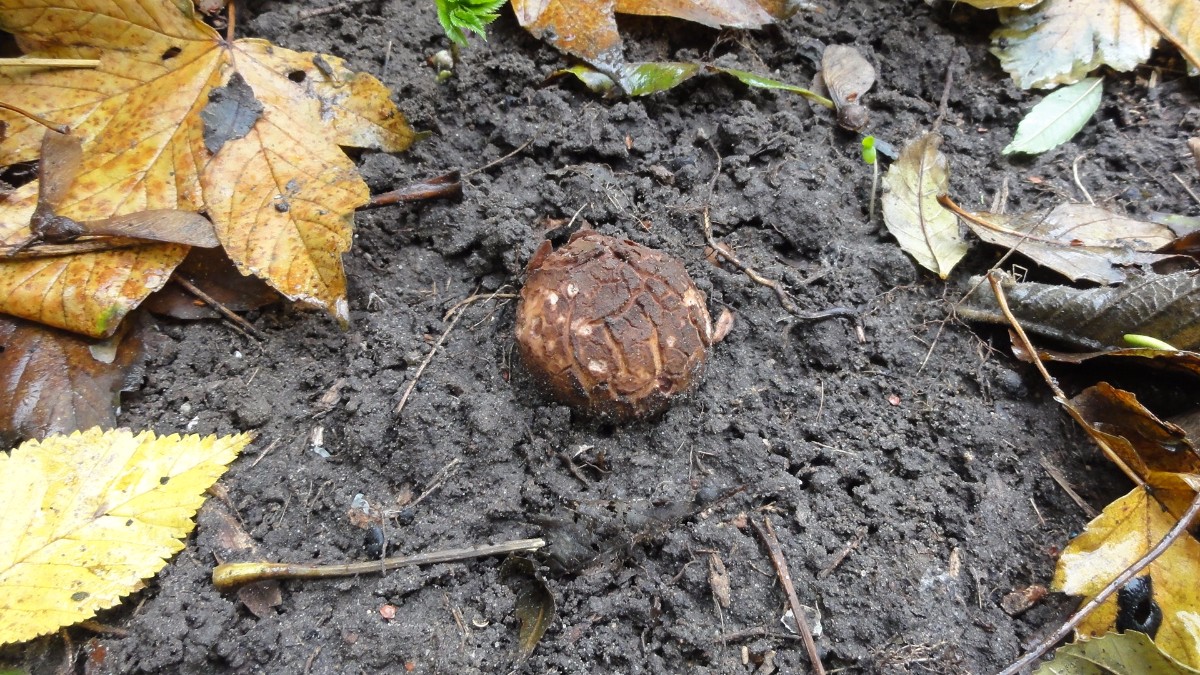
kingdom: Fungi
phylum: Basidiomycota
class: Agaricomycetes
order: Geastrales
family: Geastraceae
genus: Geastrum
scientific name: Geastrum melanocephalum
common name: håret stjernebold
